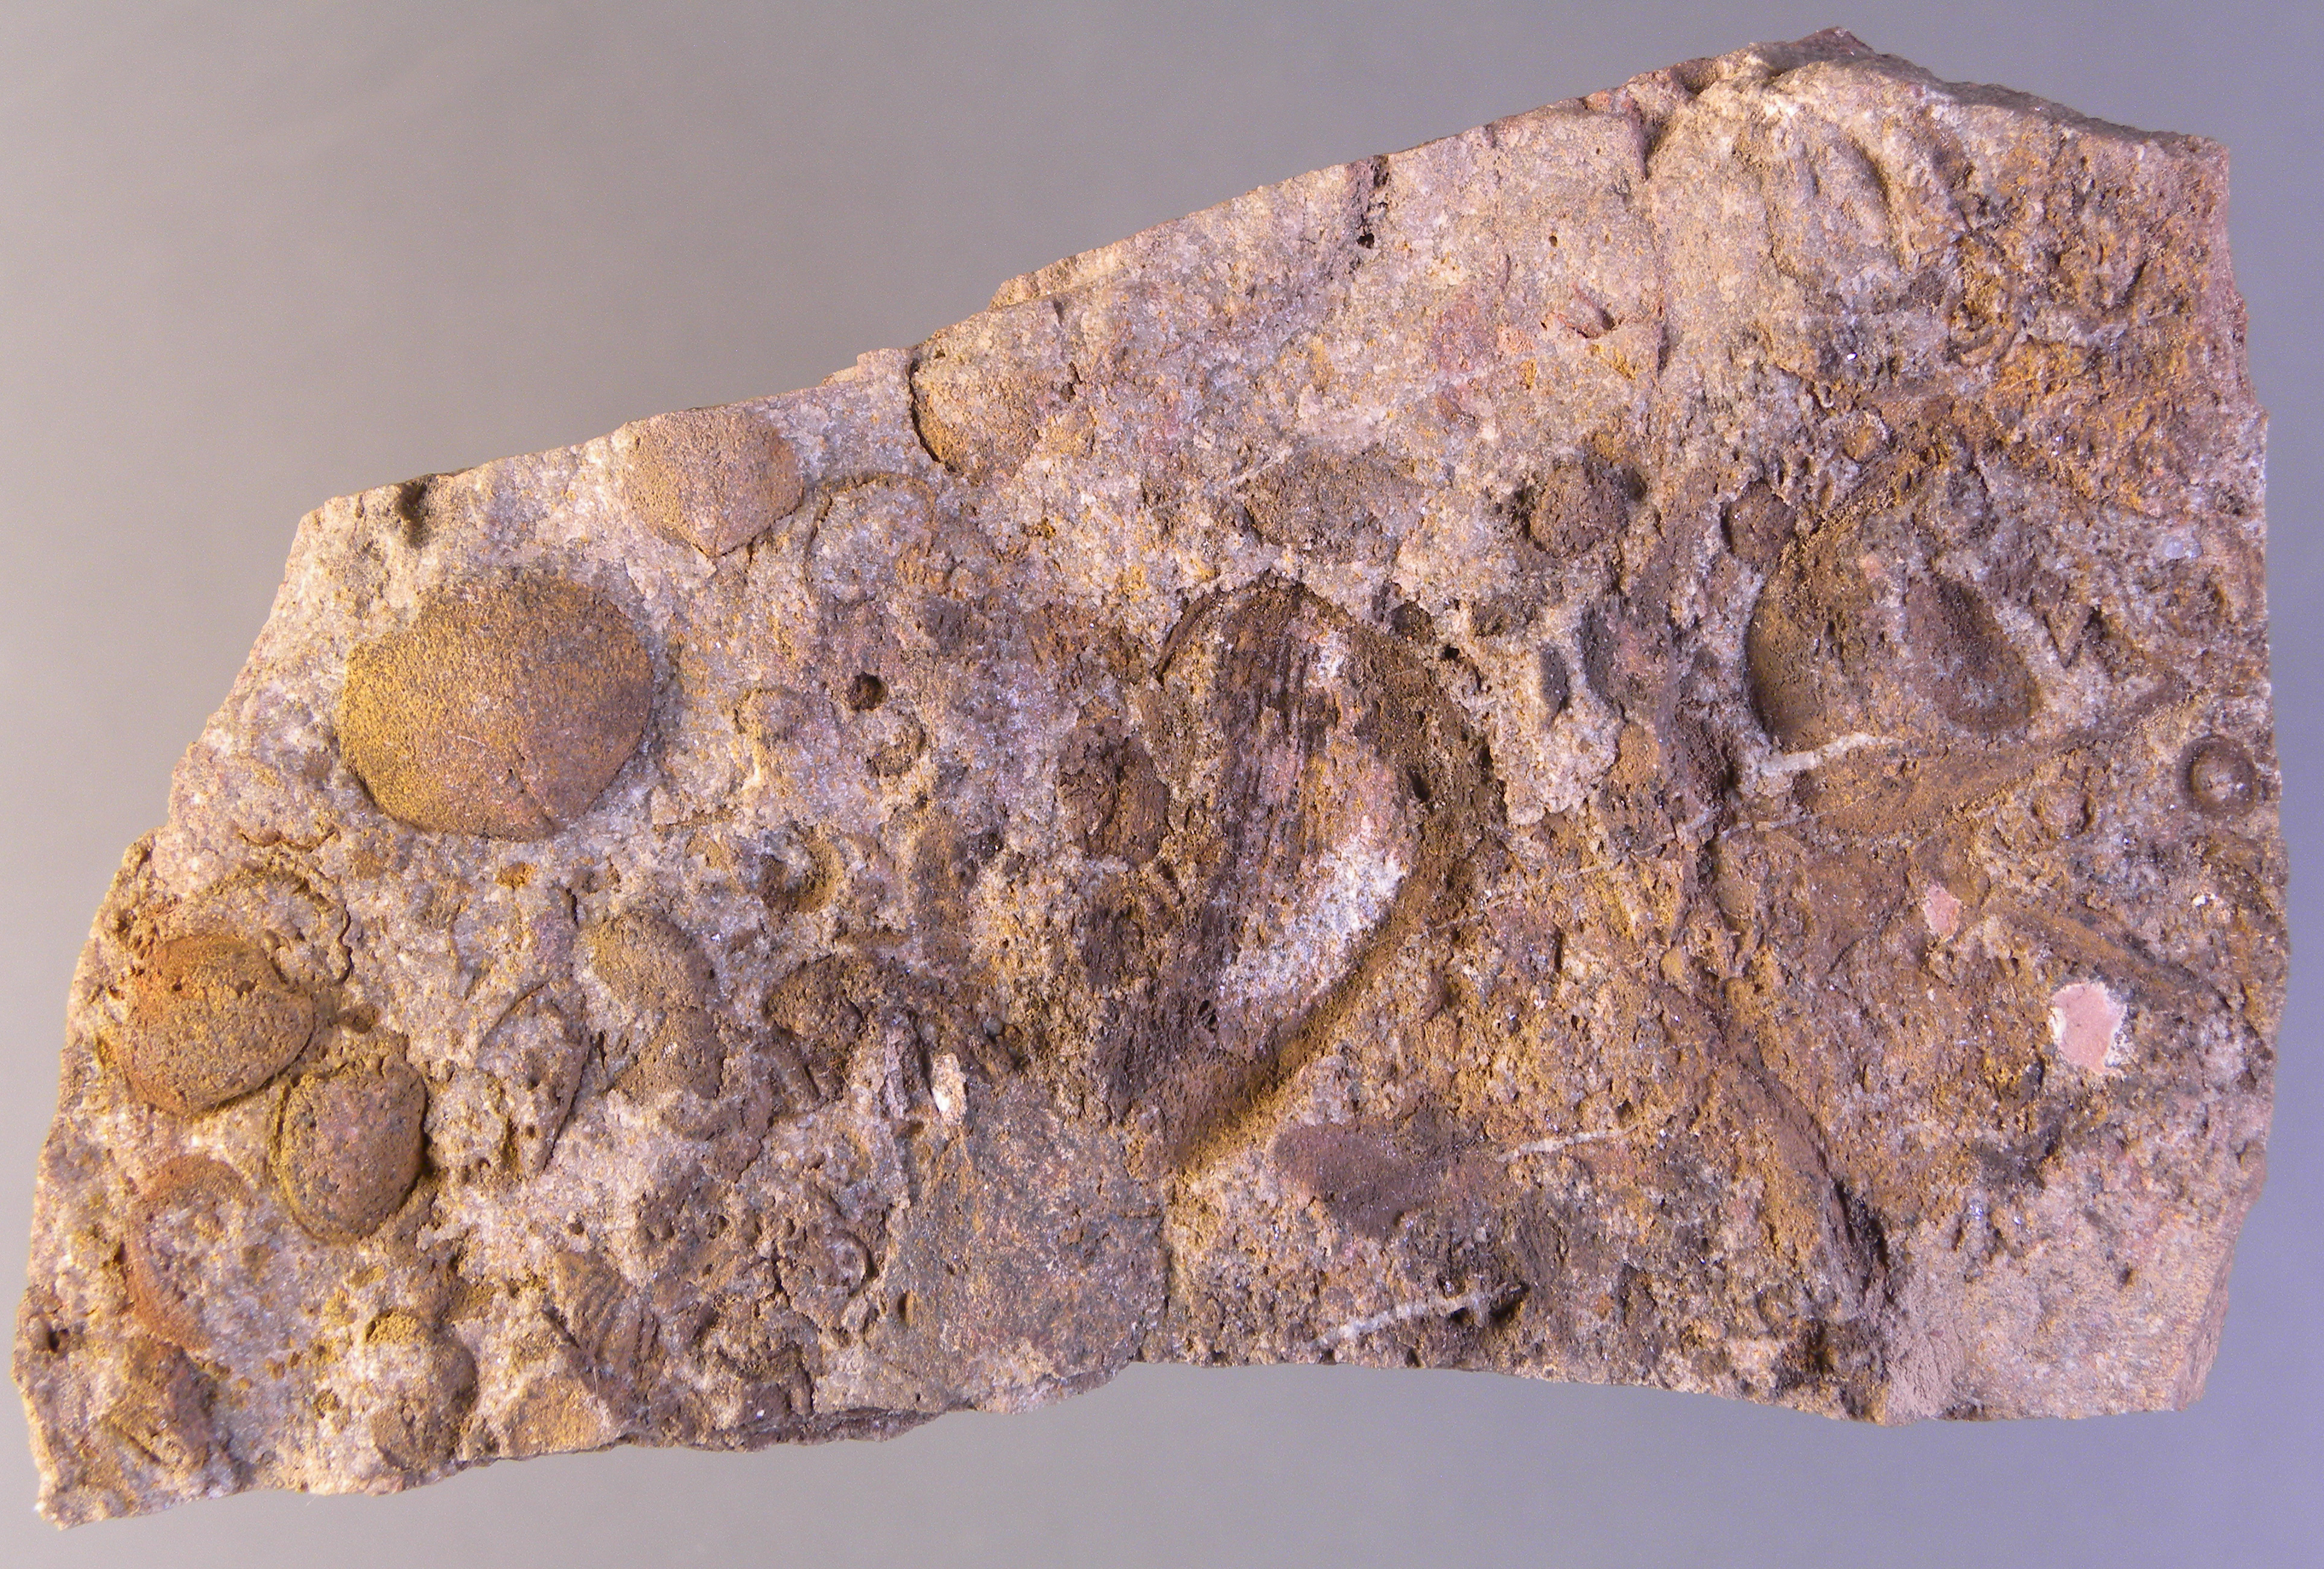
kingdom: Animalia
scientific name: Animalia
